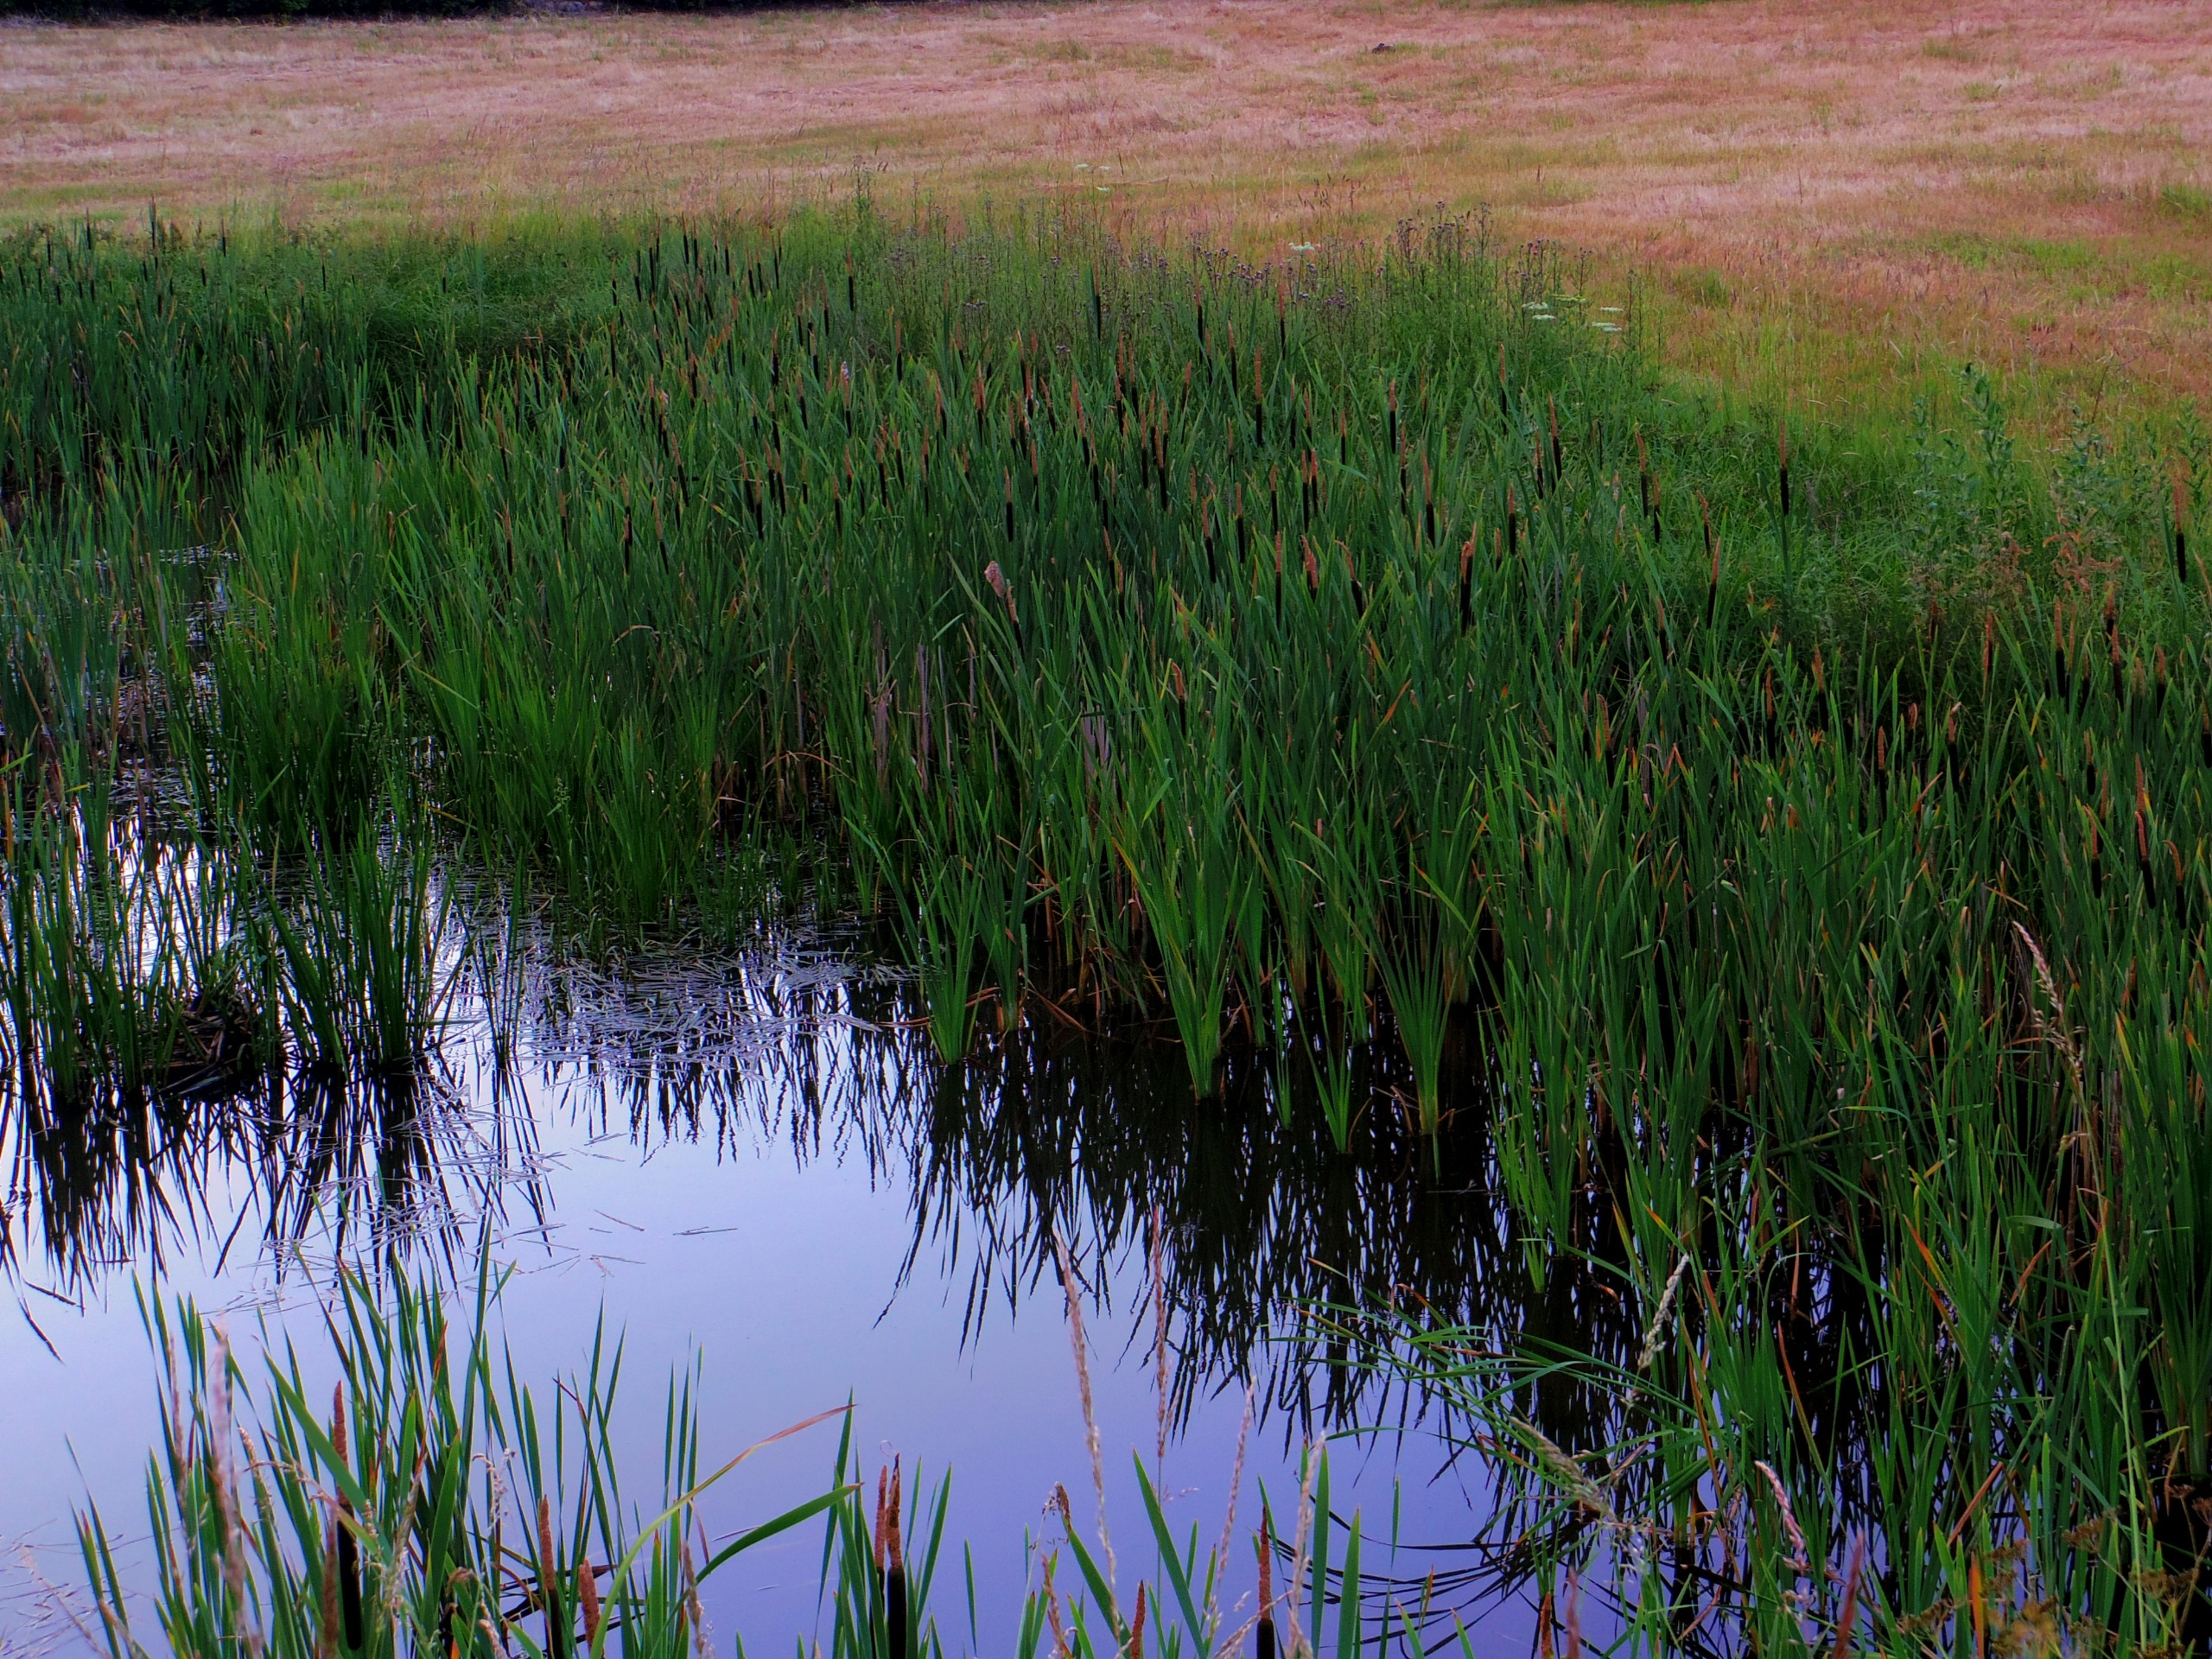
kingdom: Plantae
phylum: Tracheophyta
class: Liliopsida
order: Poales
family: Typhaceae
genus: Typha
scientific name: Typha latifolia
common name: Bredbladet dunhammer
